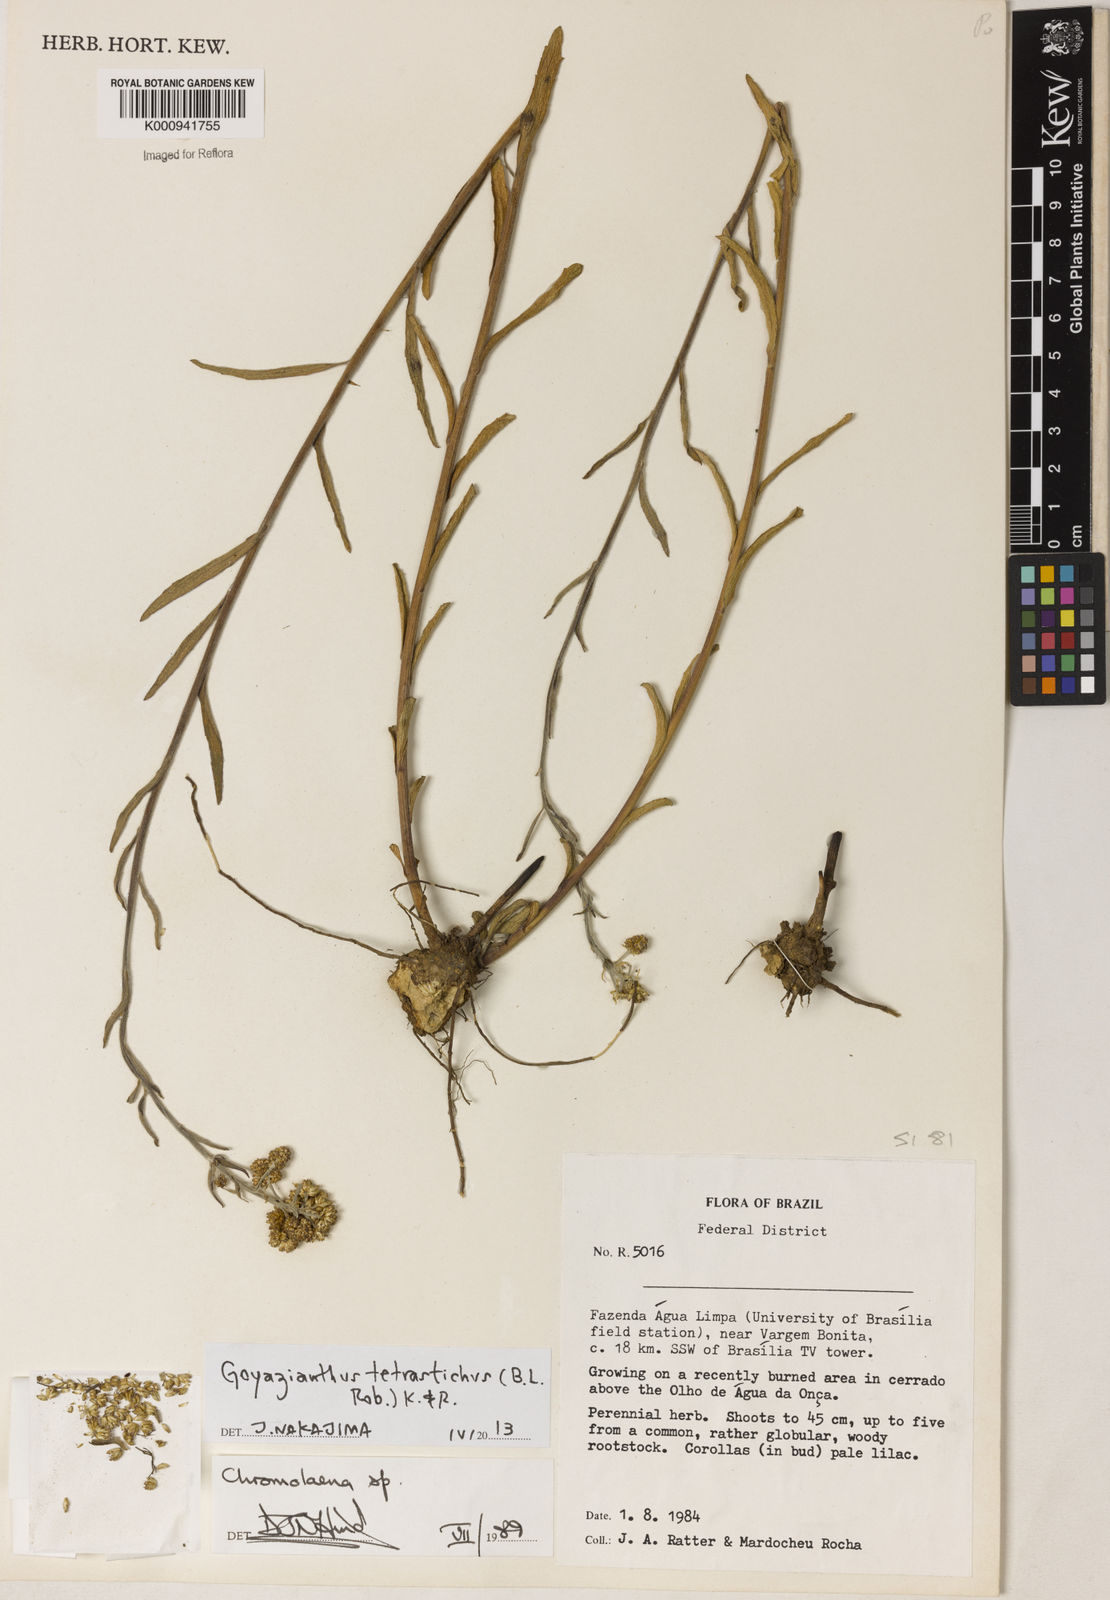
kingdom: Plantae
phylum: Tracheophyta
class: Magnoliopsida
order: Asterales
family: Asteraceae
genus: Goyazianthus
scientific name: Goyazianthus tetrastichus
